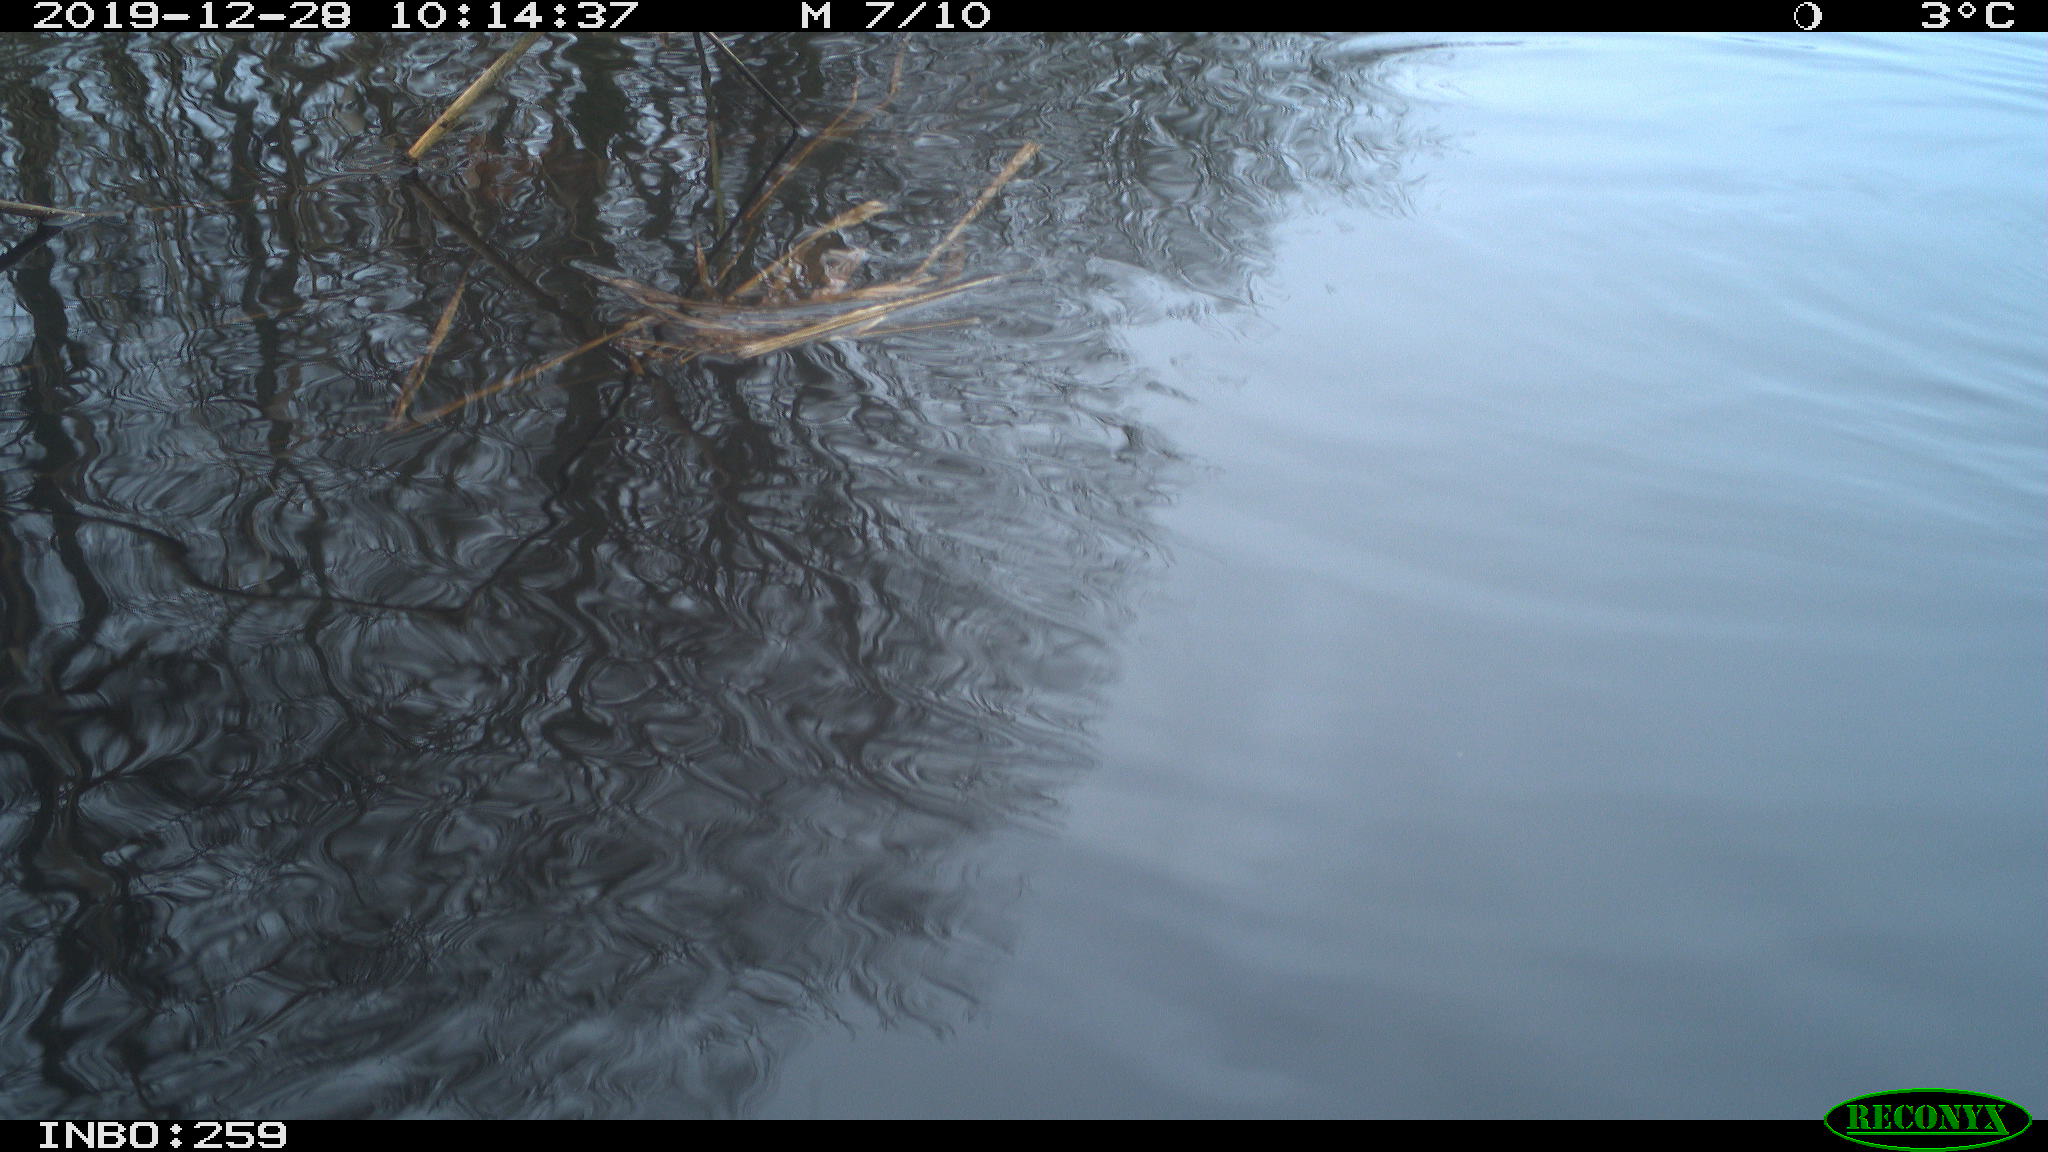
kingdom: Animalia
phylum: Chordata
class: Aves
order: Gruiformes
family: Rallidae
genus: Gallinula
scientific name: Gallinula chloropus
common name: Common moorhen
